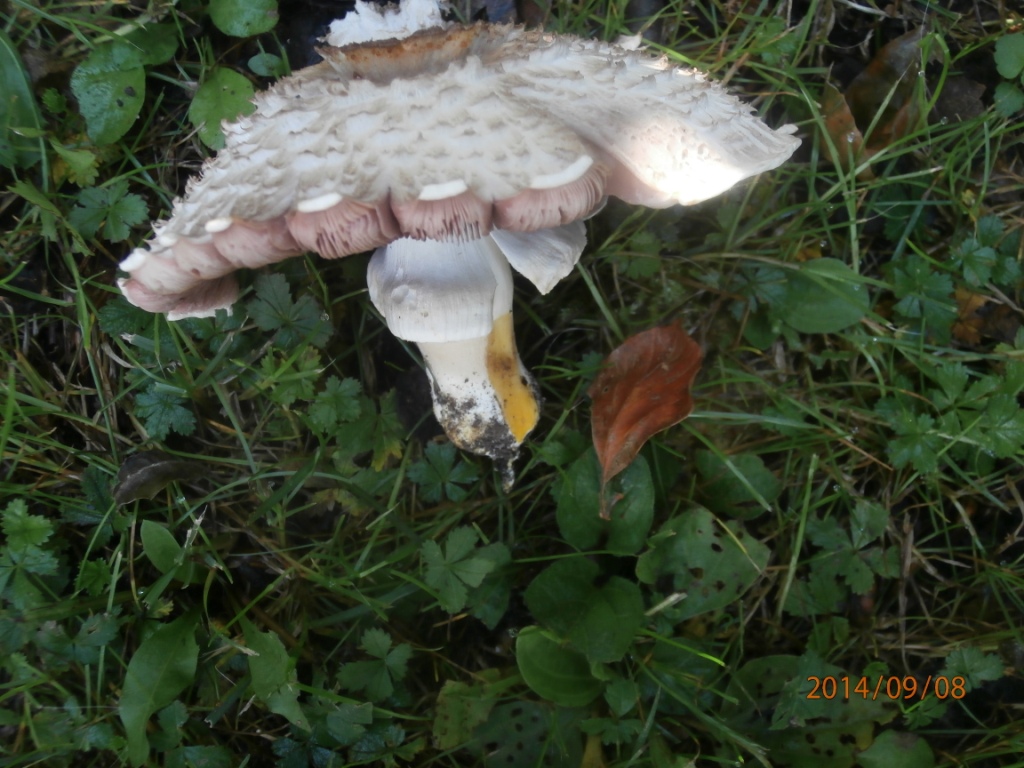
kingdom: Fungi
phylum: Basidiomycota
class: Agaricomycetes
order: Agaricales
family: Agaricaceae
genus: Agaricus
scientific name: Agaricus xanthodermus
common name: karbol-champignon
